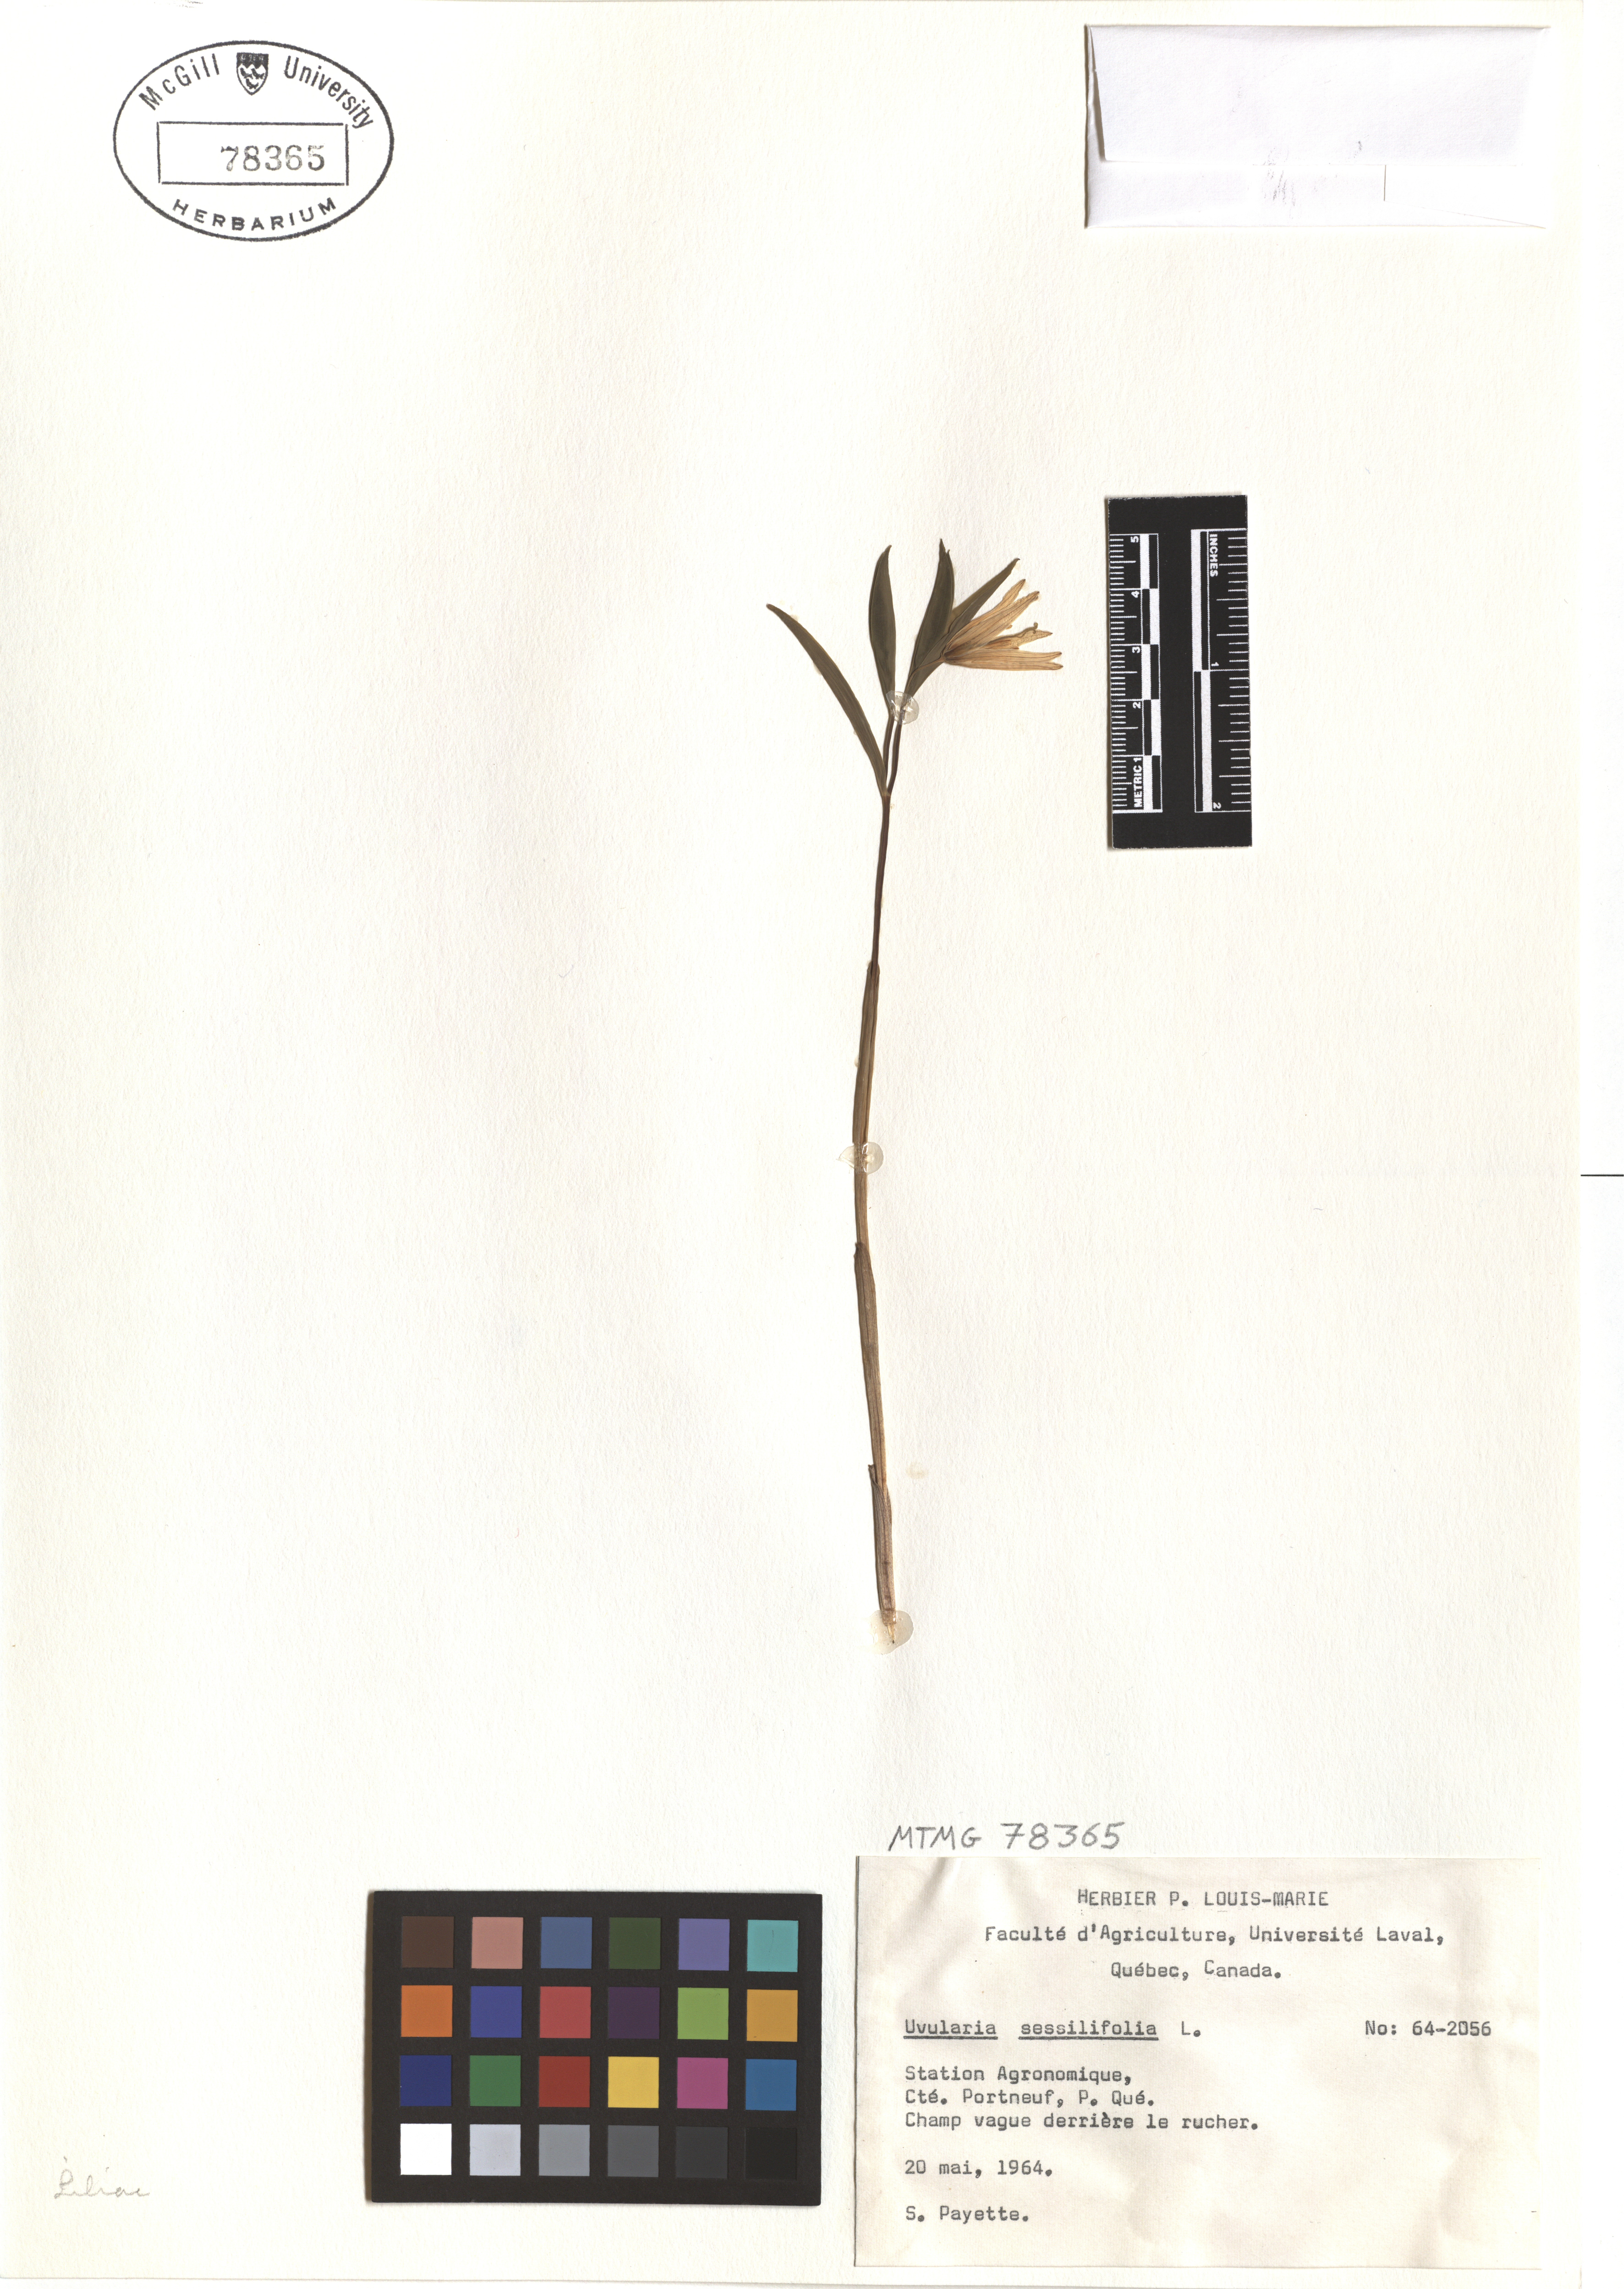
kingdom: Plantae
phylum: Tracheophyta
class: Liliopsida
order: Liliales
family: Colchicaceae
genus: Uvularia
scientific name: Uvularia sessilifolia
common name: Straw-lily
